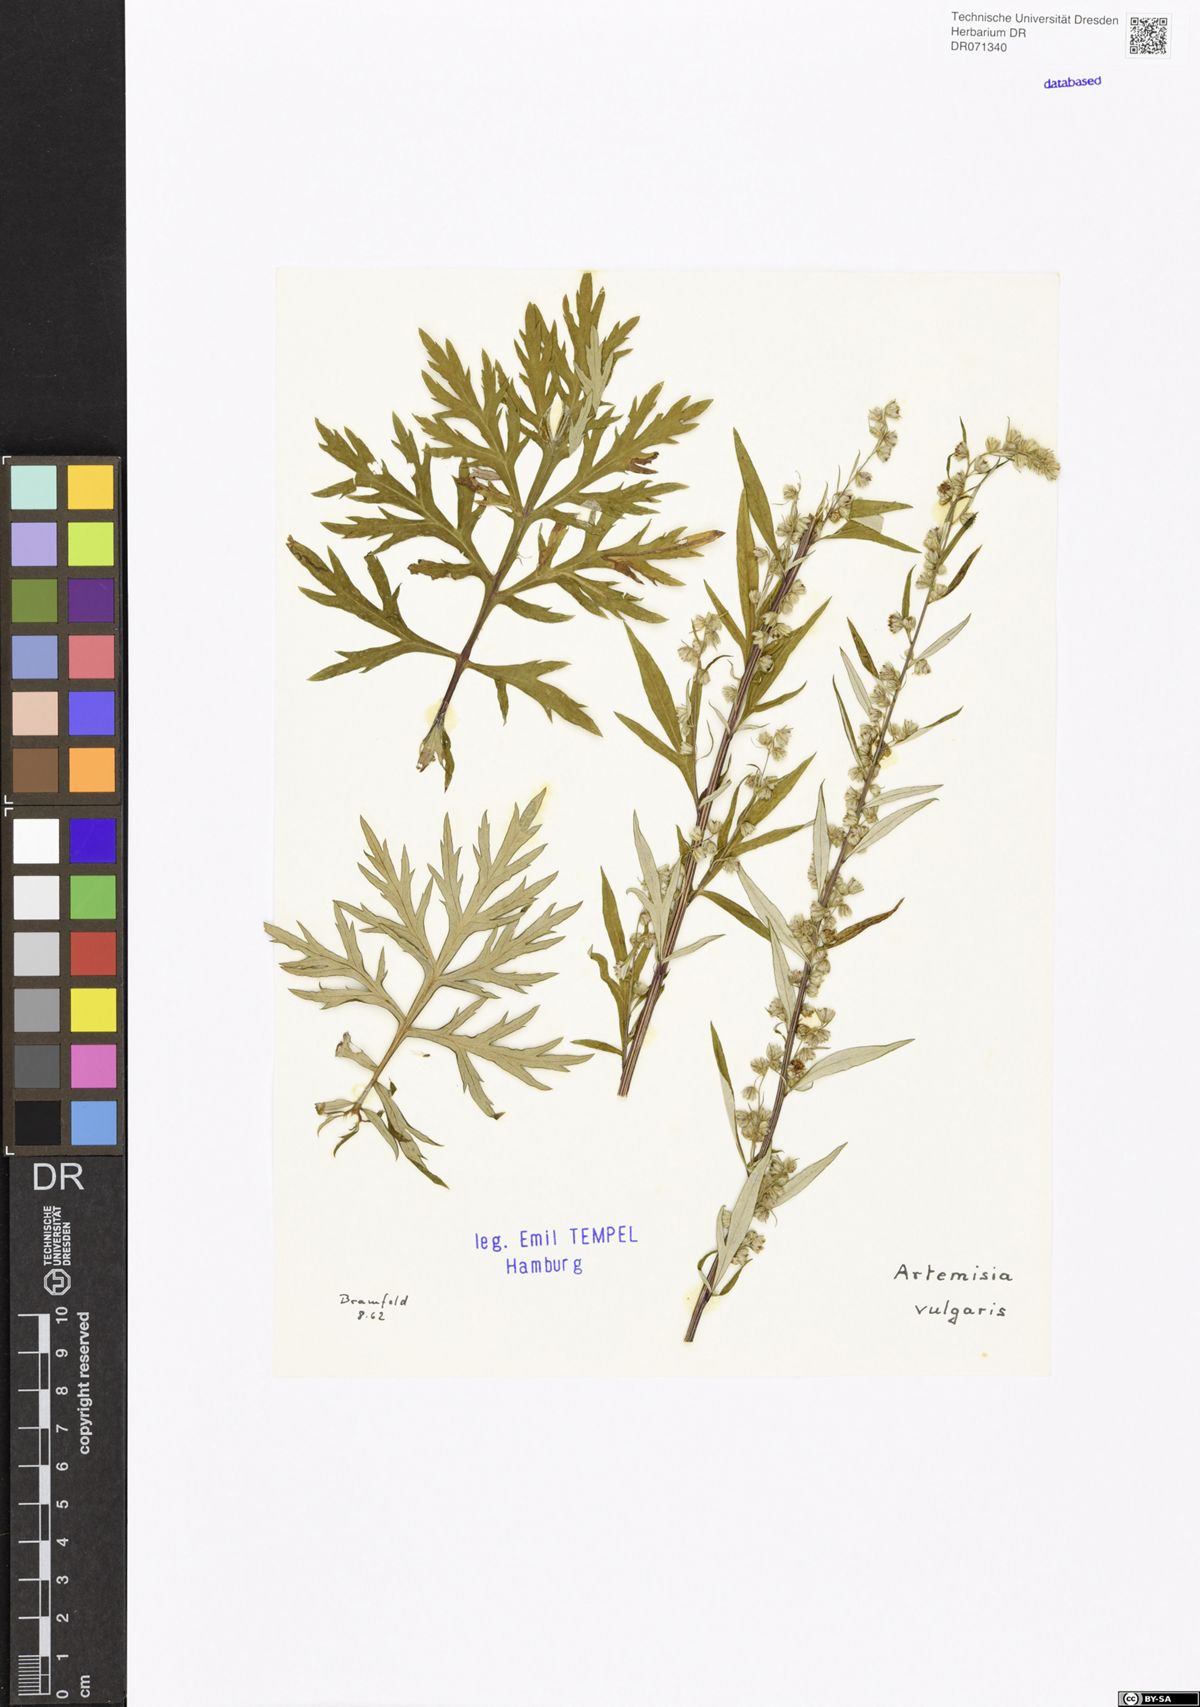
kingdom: Plantae
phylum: Tracheophyta
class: Magnoliopsida
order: Asterales
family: Asteraceae
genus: Artemisia
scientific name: Artemisia vulgaris
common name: Mugwort
